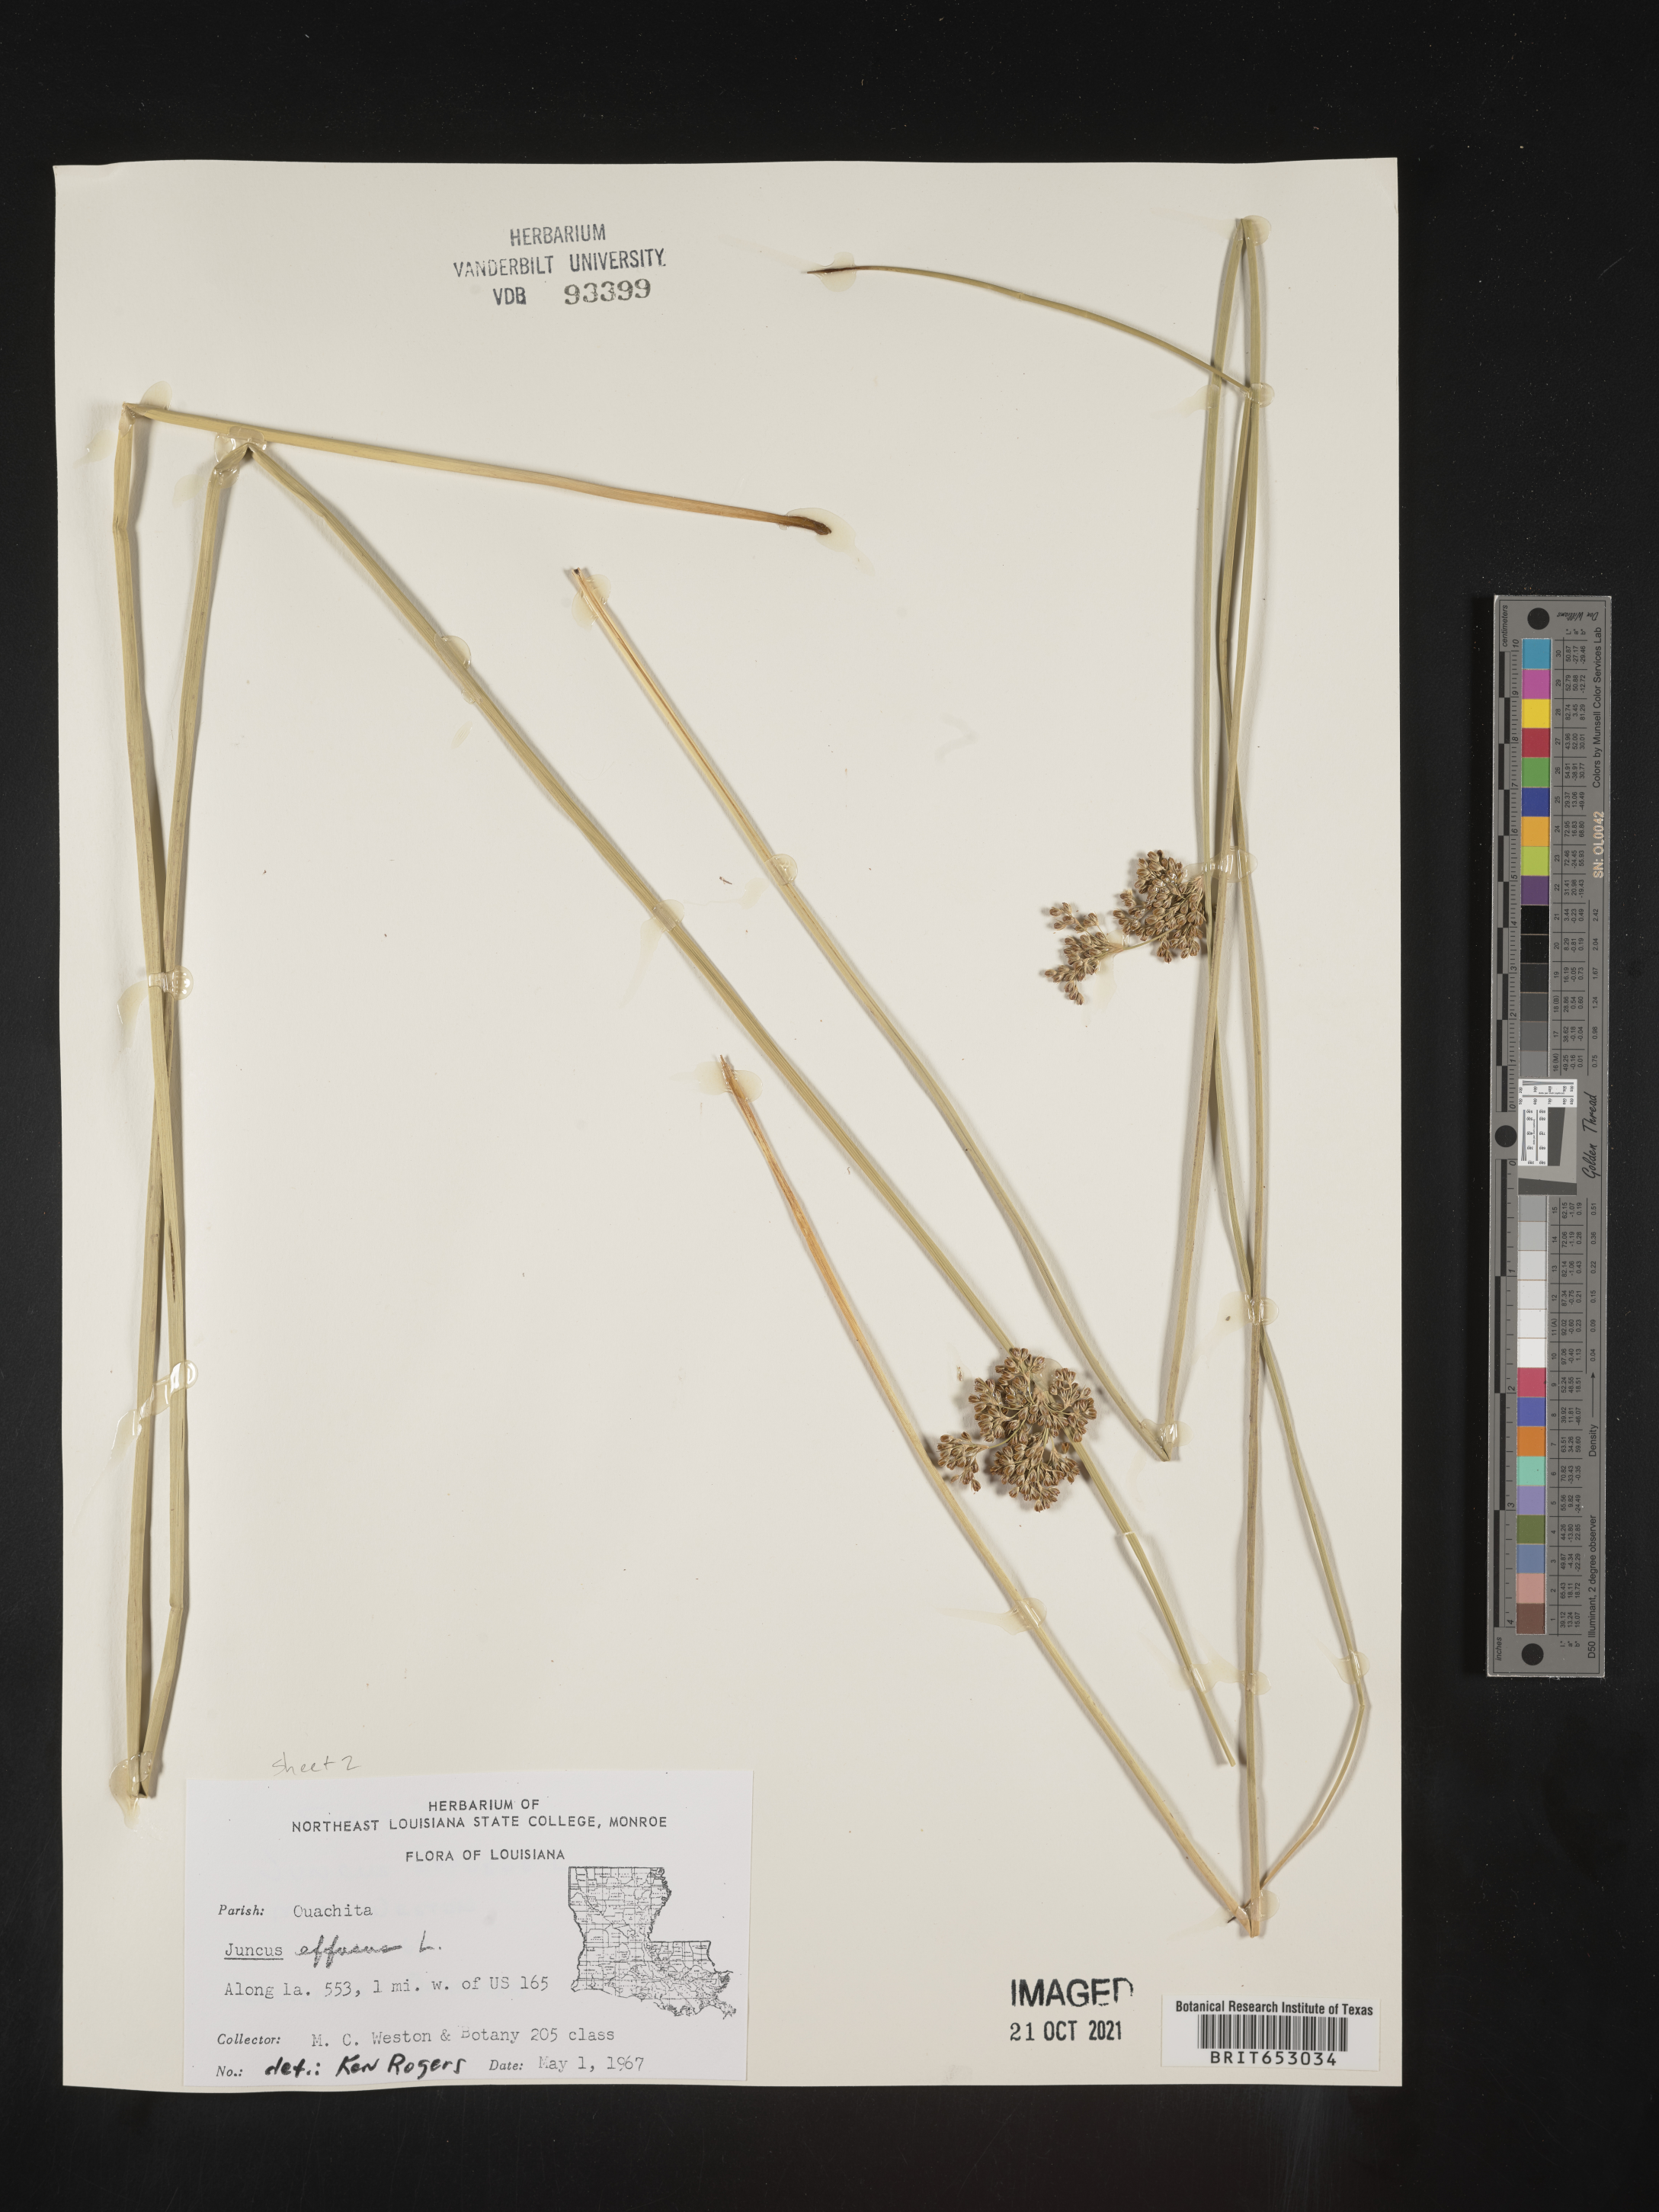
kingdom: Plantae
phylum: Tracheophyta
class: Liliopsida
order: Poales
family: Juncaceae
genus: Juncus
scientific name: Juncus effusus
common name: Soft rush
